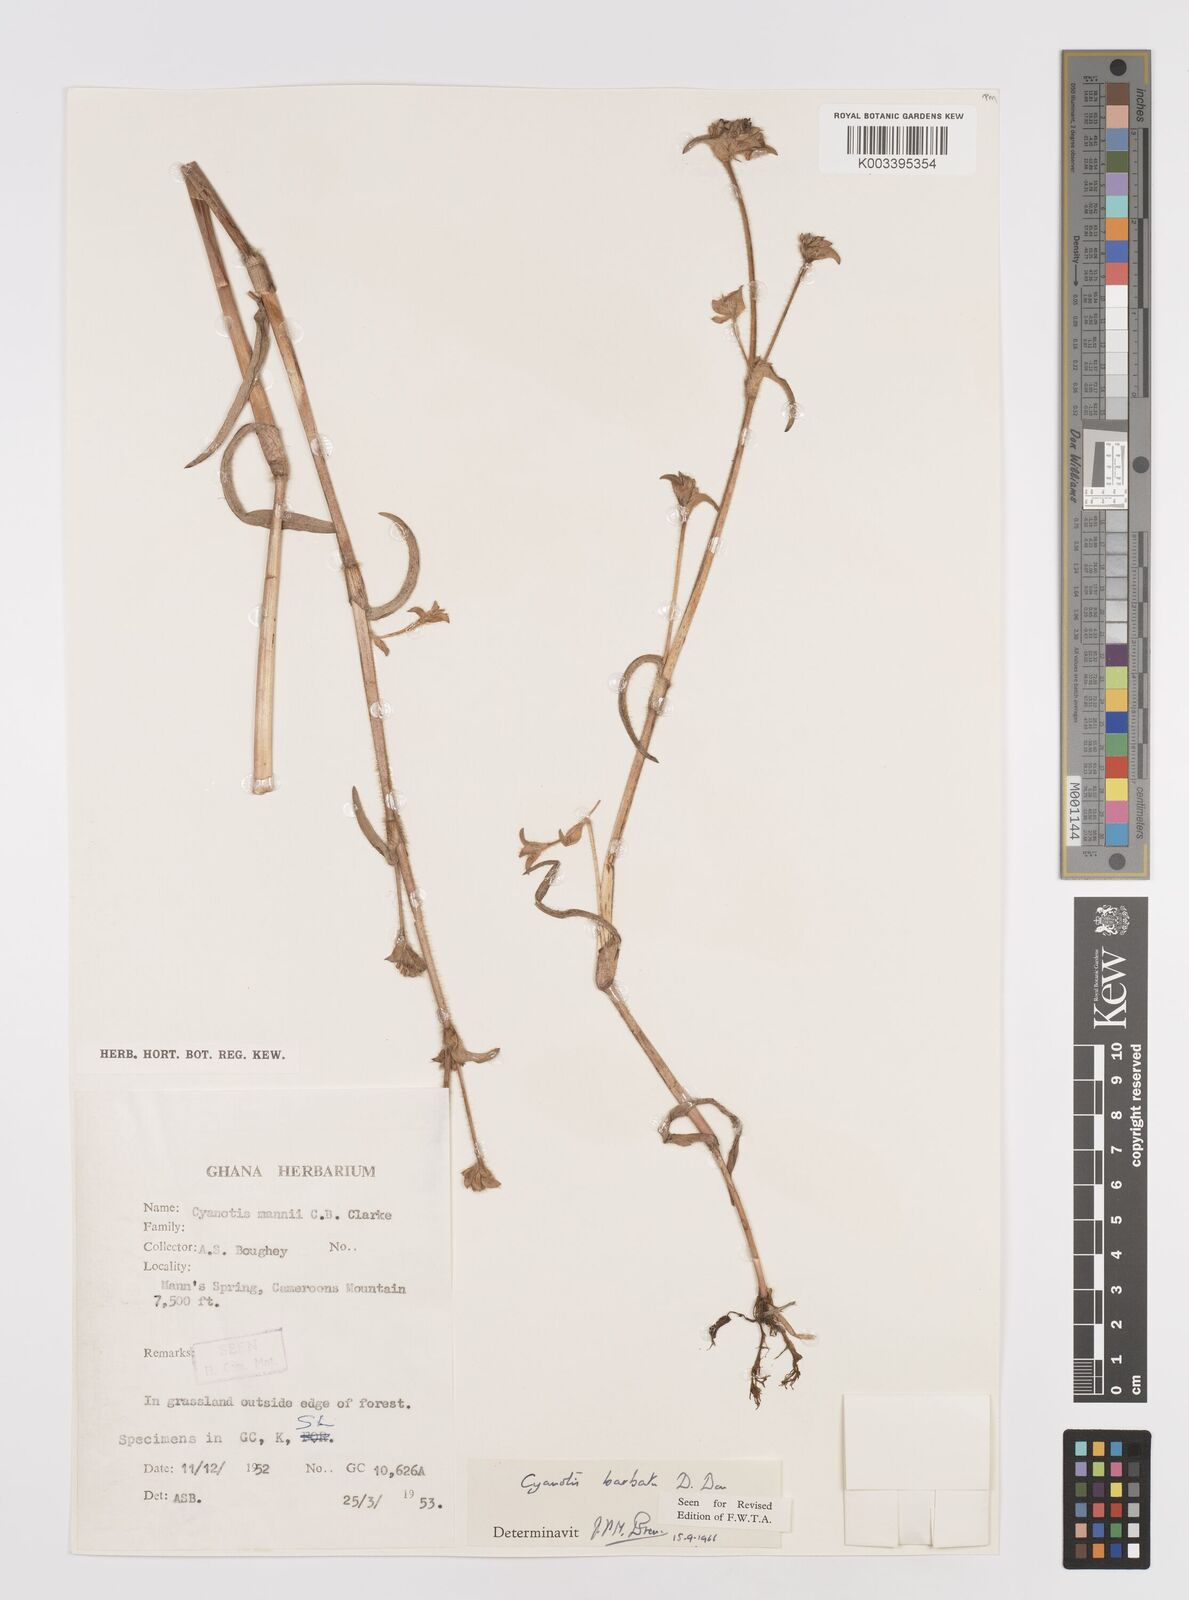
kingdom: Plantae
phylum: Tracheophyta
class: Liliopsida
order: Commelinales
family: Commelinaceae
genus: Cyanotis
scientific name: Cyanotis vaga
